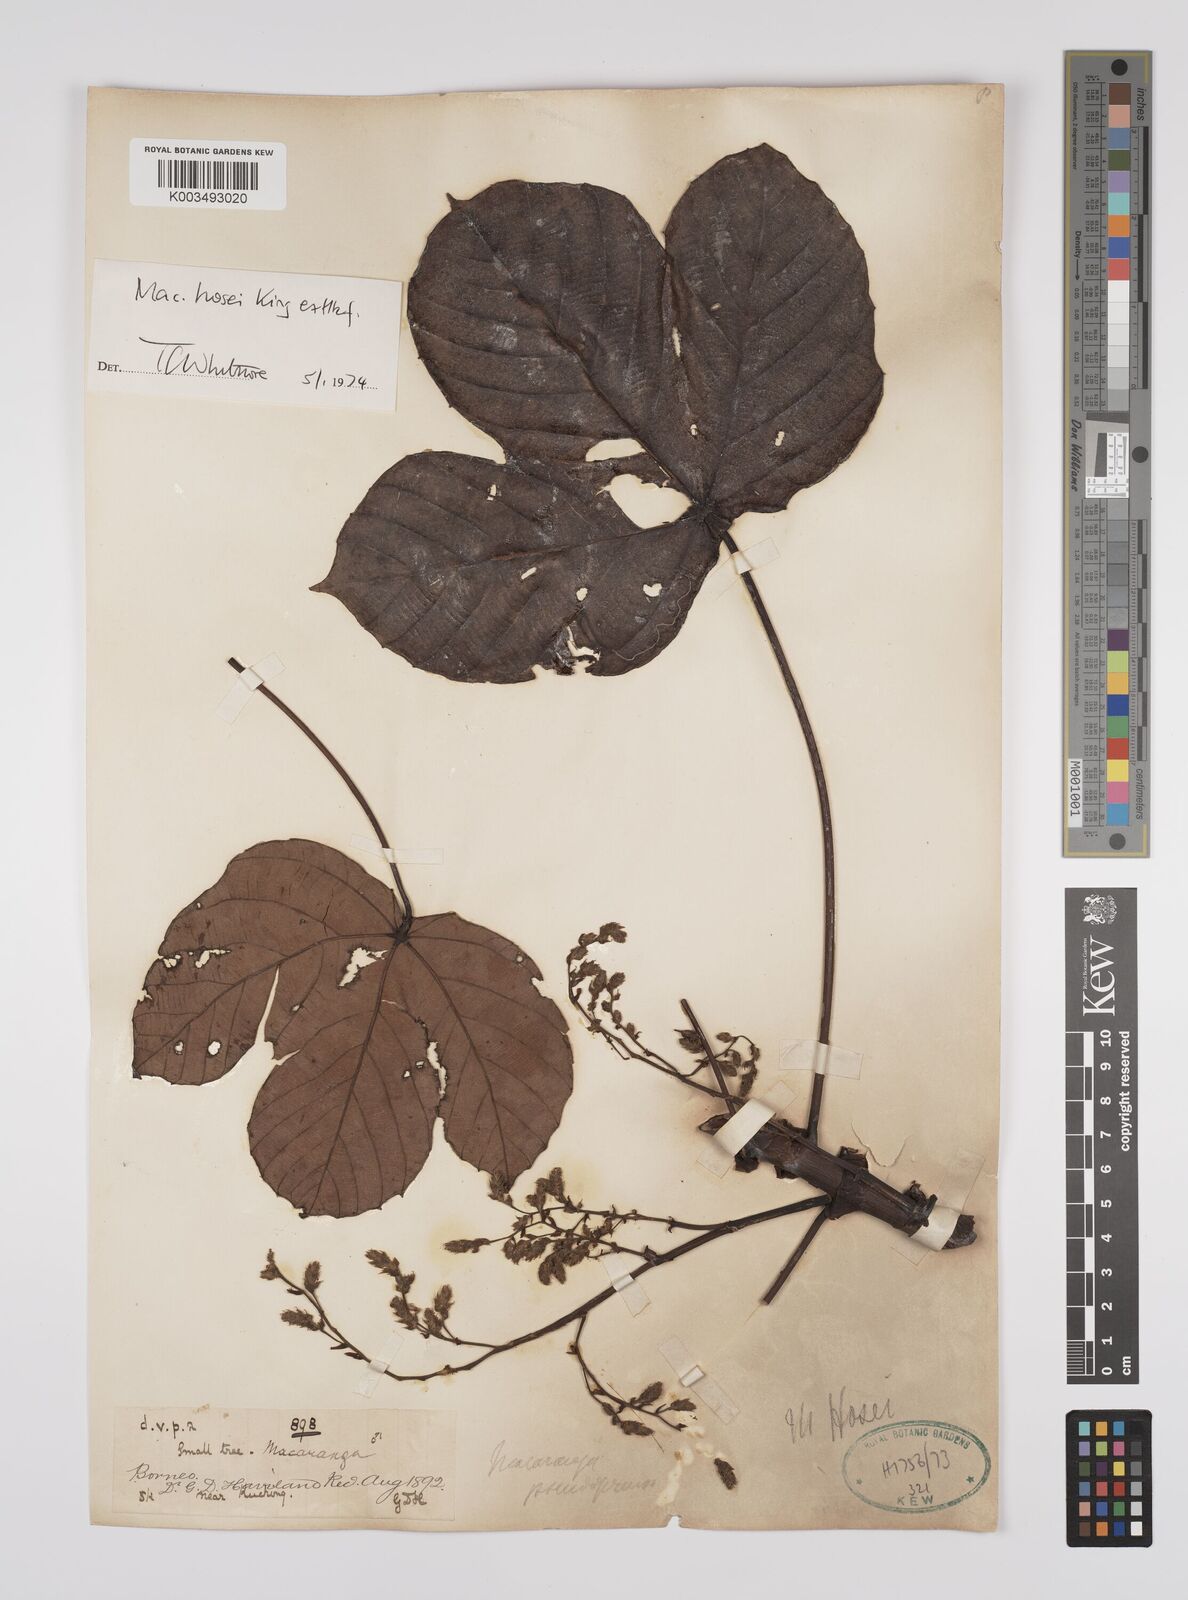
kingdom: Plantae
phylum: Tracheophyta
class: Magnoliopsida
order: Malpighiales
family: Euphorbiaceae
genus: Macaranga
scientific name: Macaranga hosei
